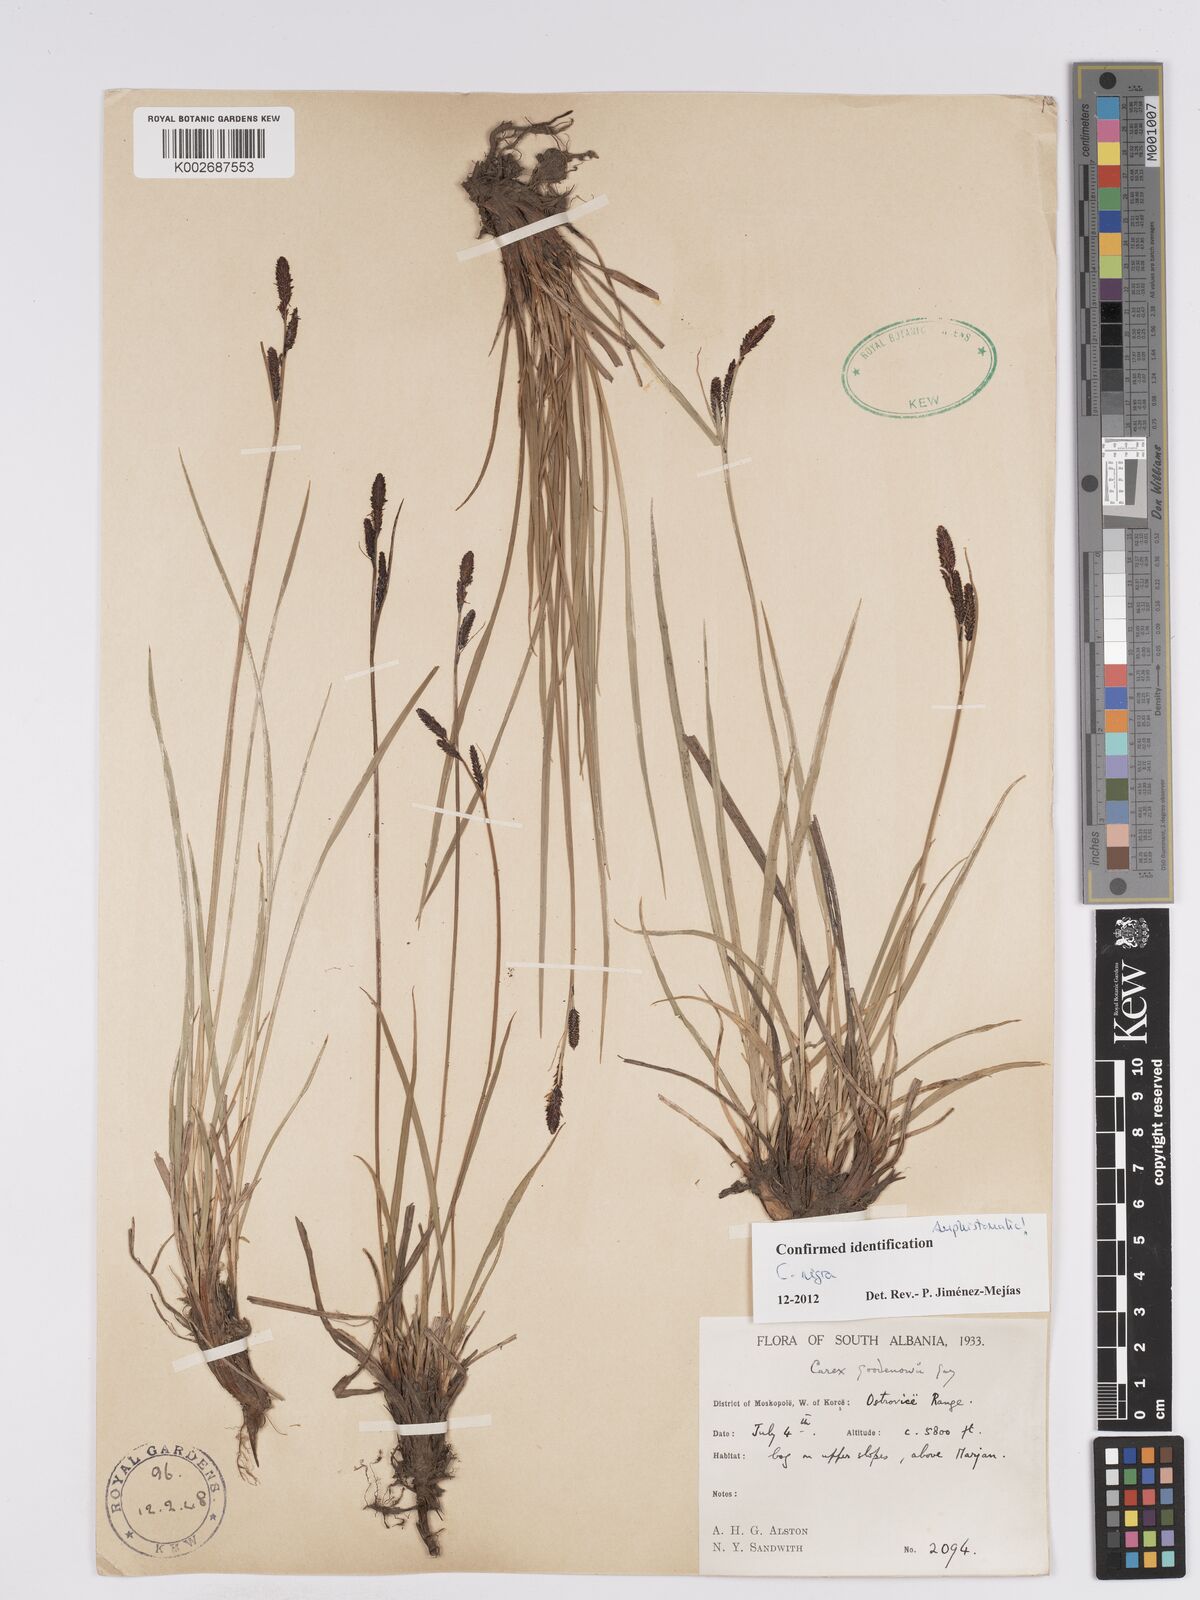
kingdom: Plantae
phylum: Tracheophyta
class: Liliopsida
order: Poales
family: Cyperaceae
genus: Carex
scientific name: Carex nigra
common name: Common sedge
